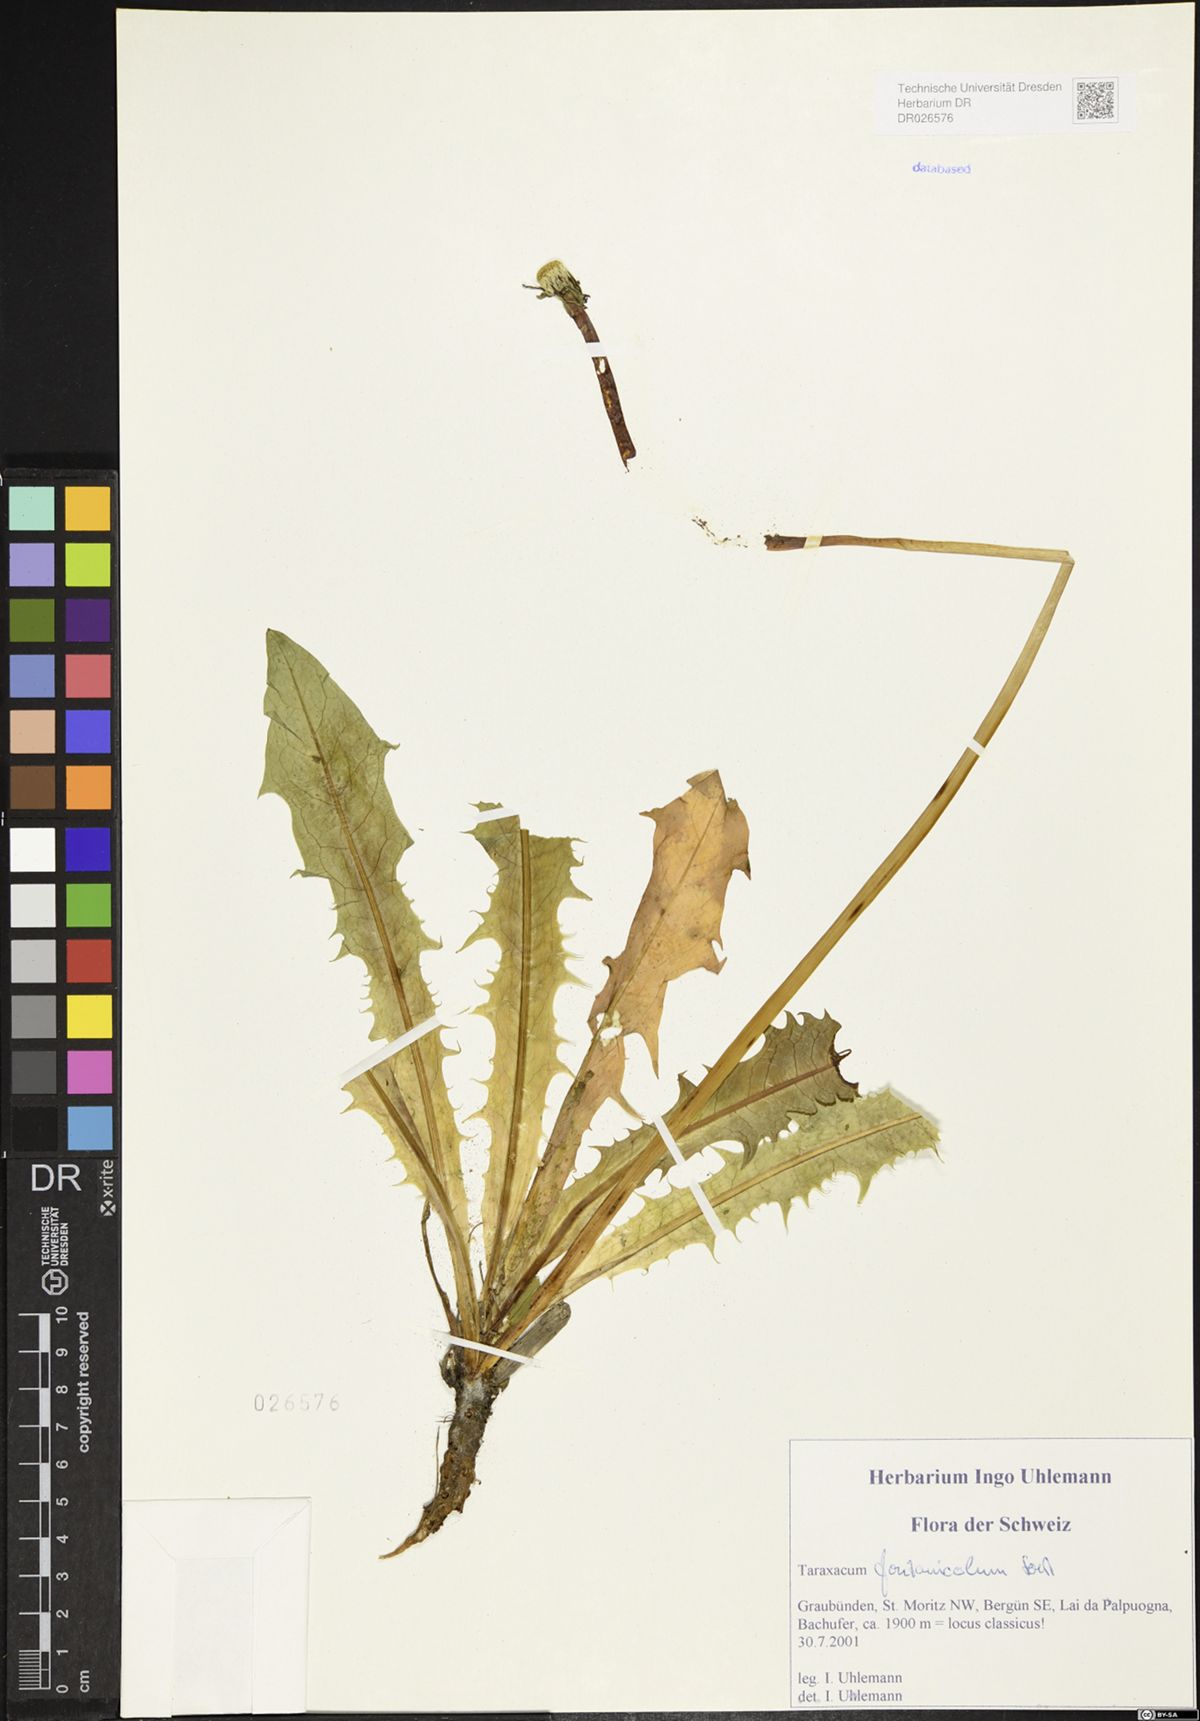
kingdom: Plantae
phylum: Tracheophyta
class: Magnoliopsida
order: Asterales
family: Asteraceae
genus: Taraxacum
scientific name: Taraxacum fontanicola
